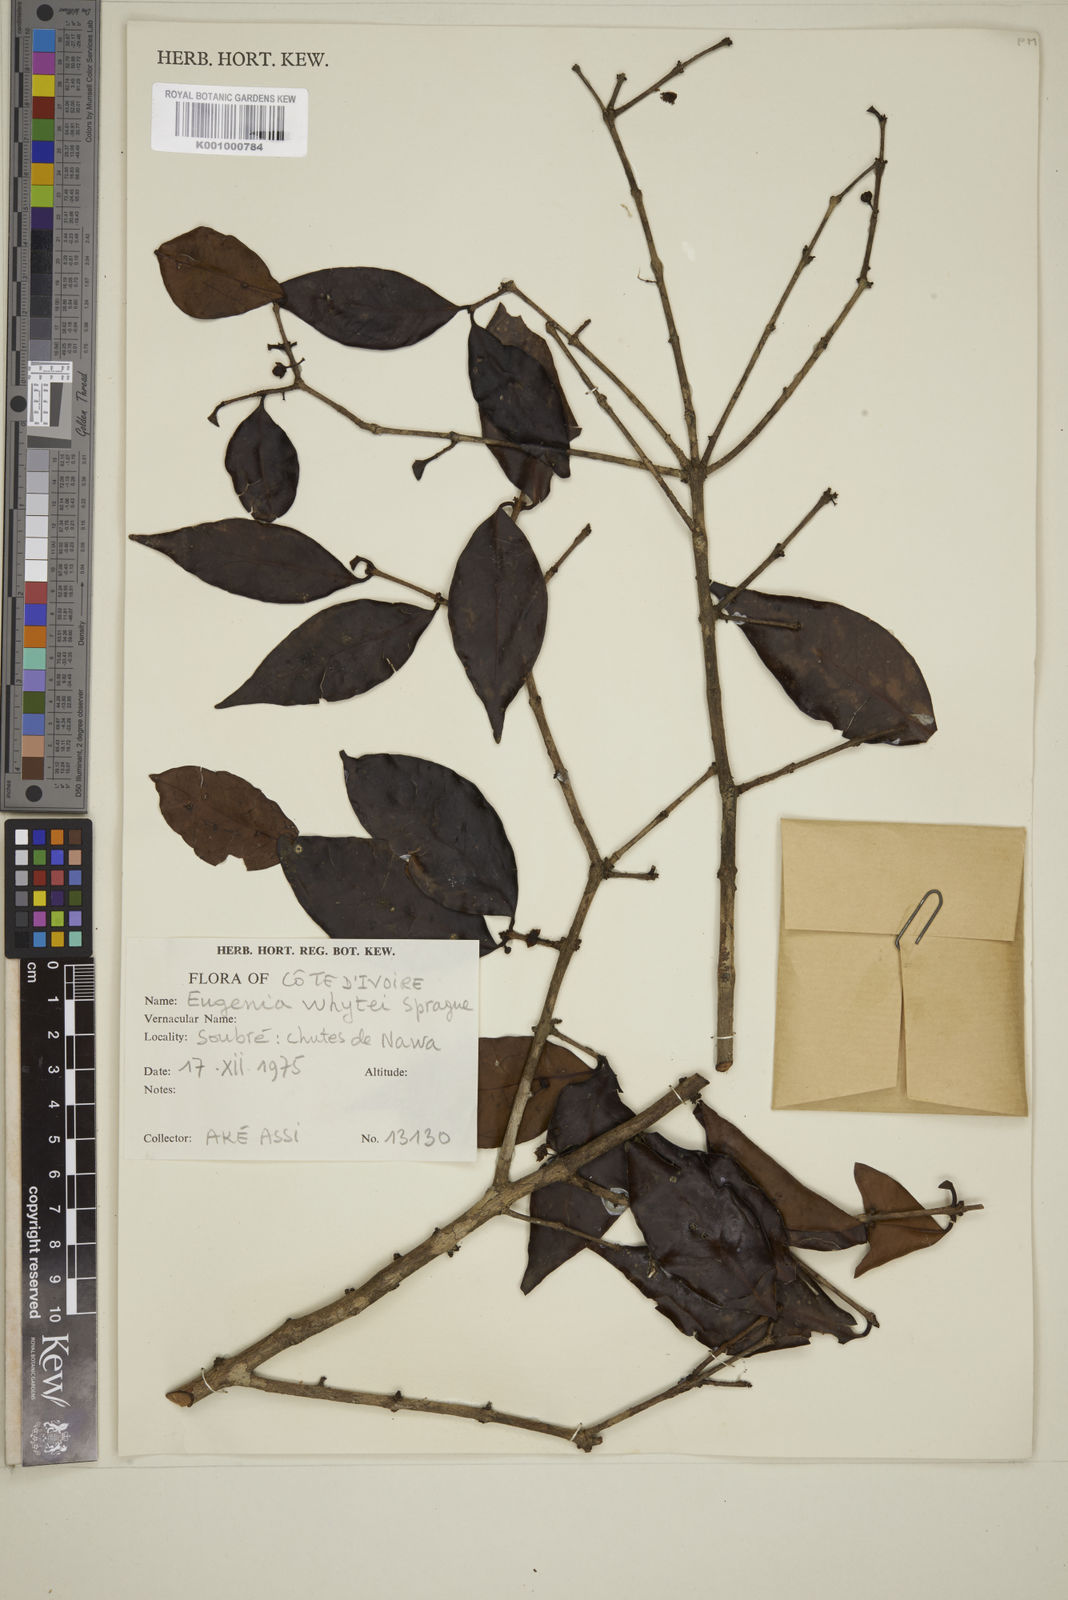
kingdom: Plantae
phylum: Tracheophyta
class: Magnoliopsida
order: Myrtales
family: Myrtaceae
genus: Eugenia
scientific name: Eugenia whytei
